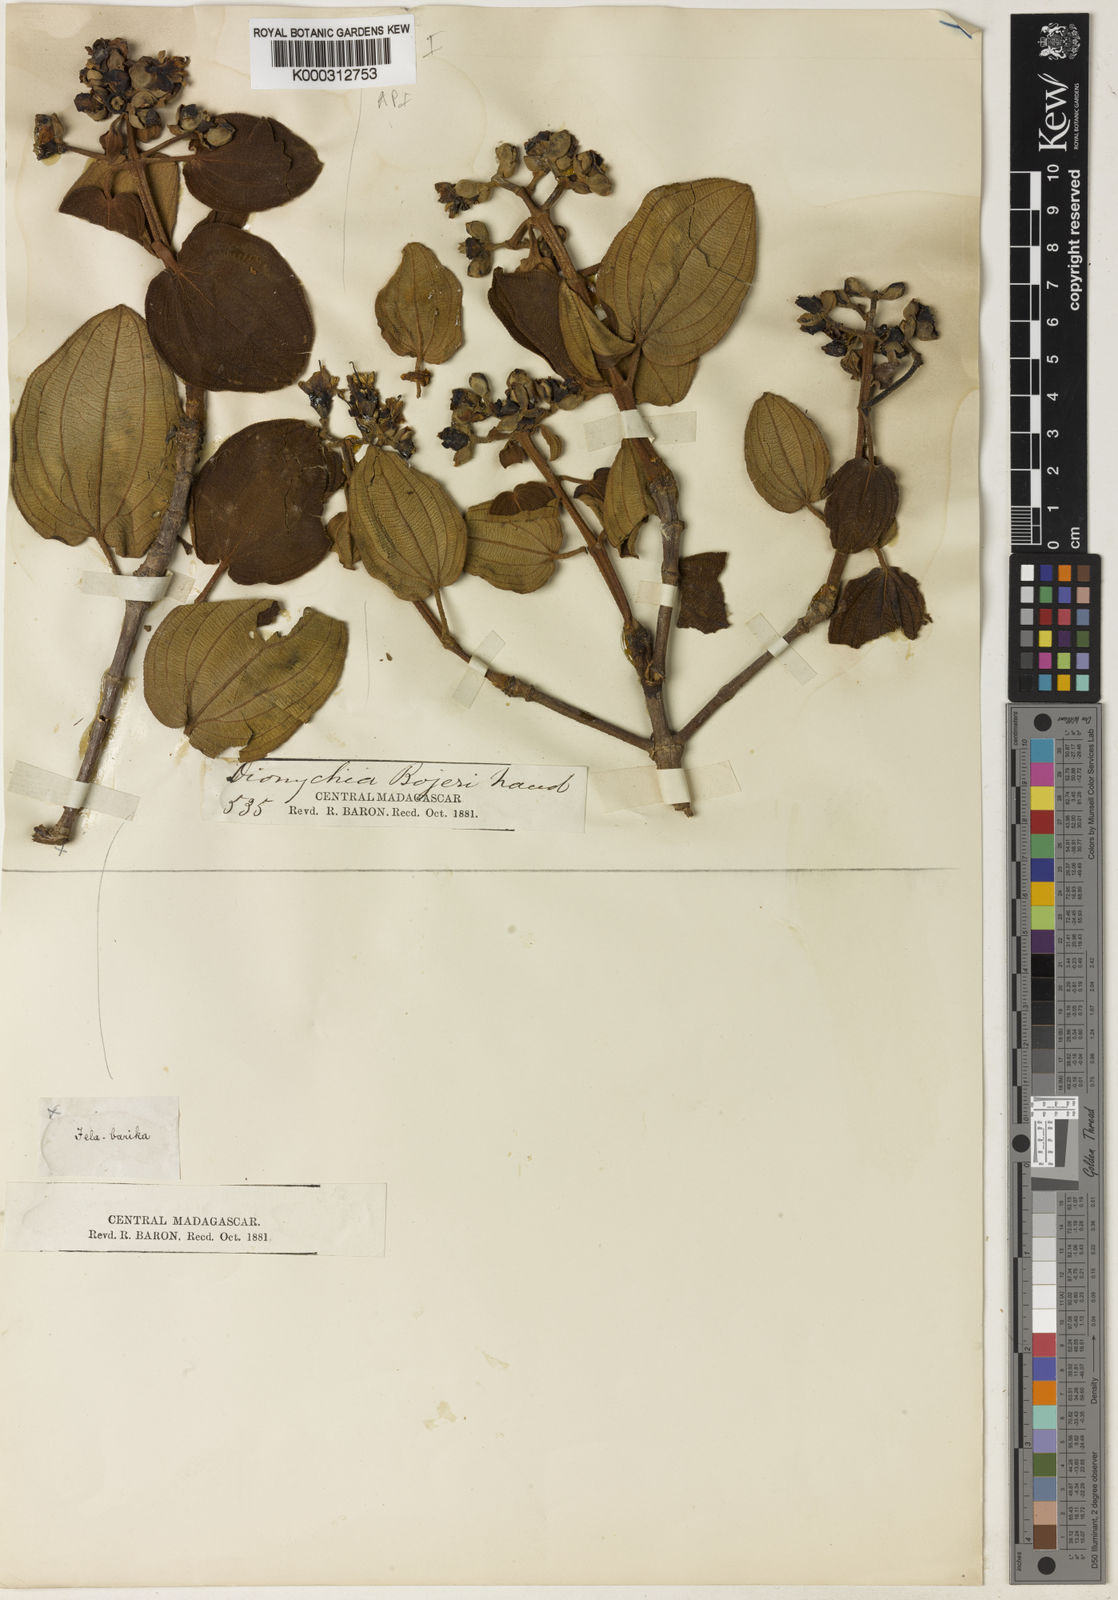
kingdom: Plantae
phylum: Tracheophyta
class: Magnoliopsida
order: Myrtales
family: Melastomataceae
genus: Dionycha
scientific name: Dionycha bojerii
